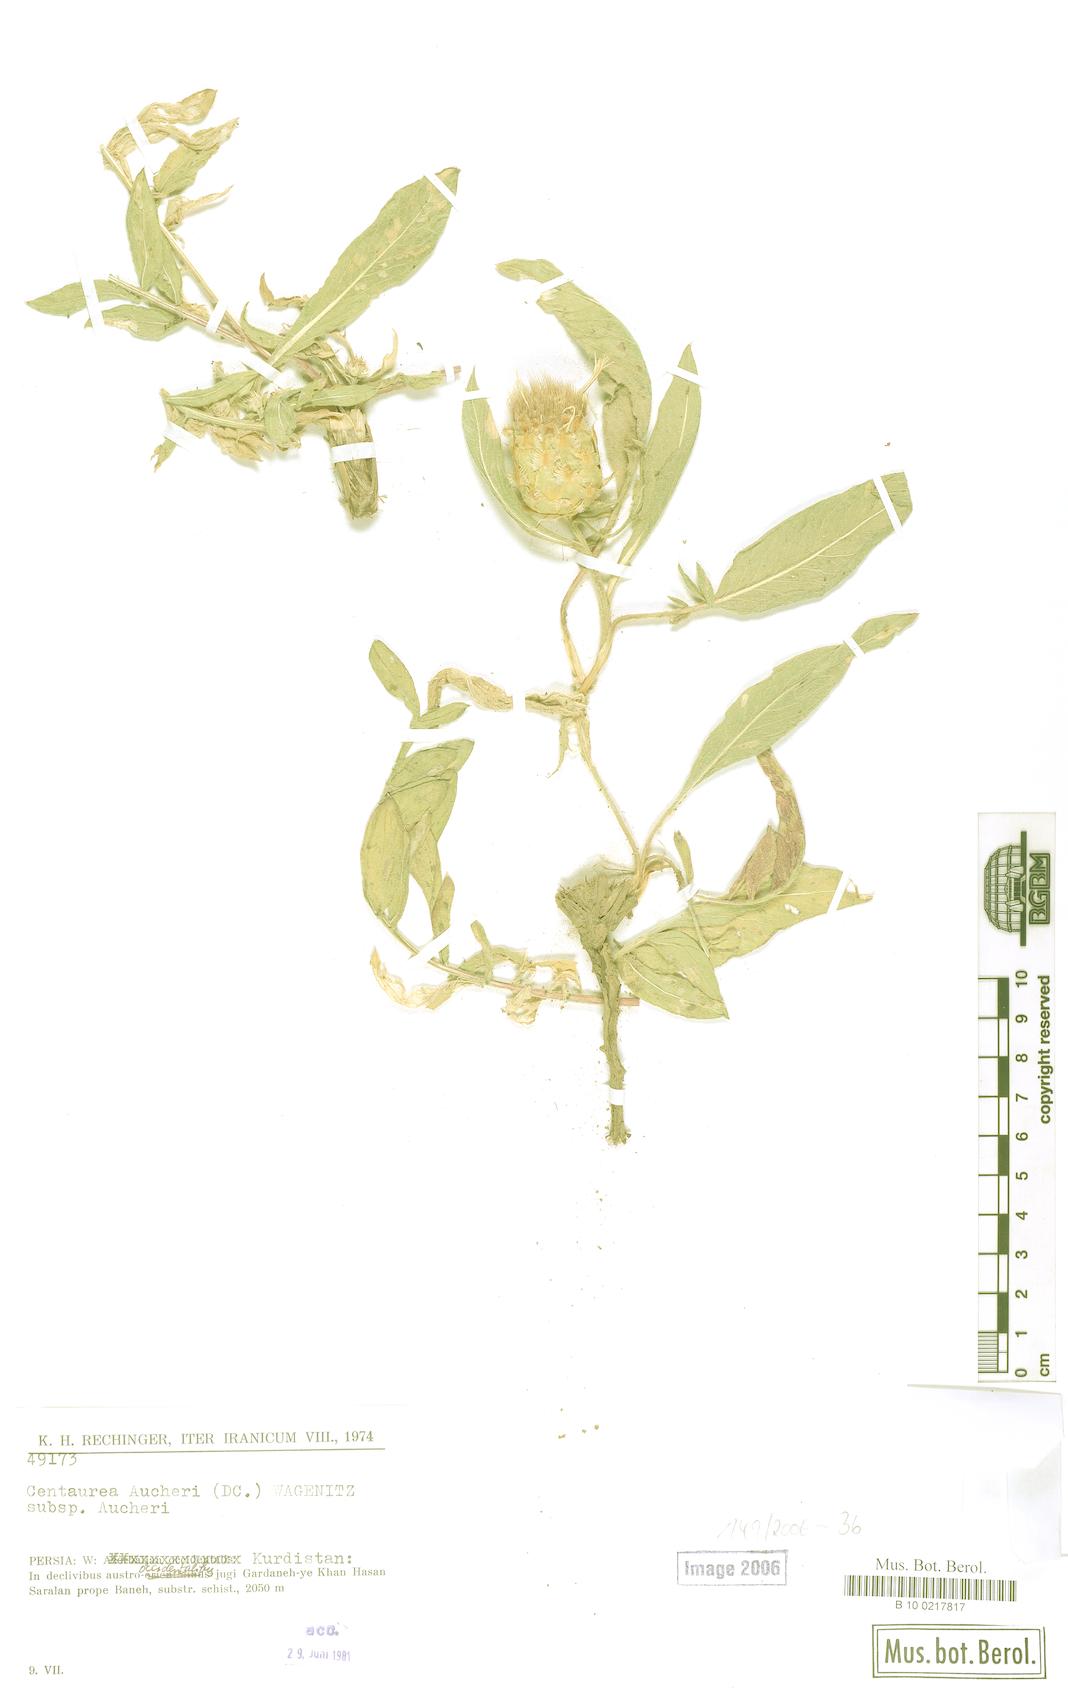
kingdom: Plantae
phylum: Tracheophyta
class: Magnoliopsida
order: Asterales
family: Asteraceae
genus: Centaurea
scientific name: Centaurea aucheri
